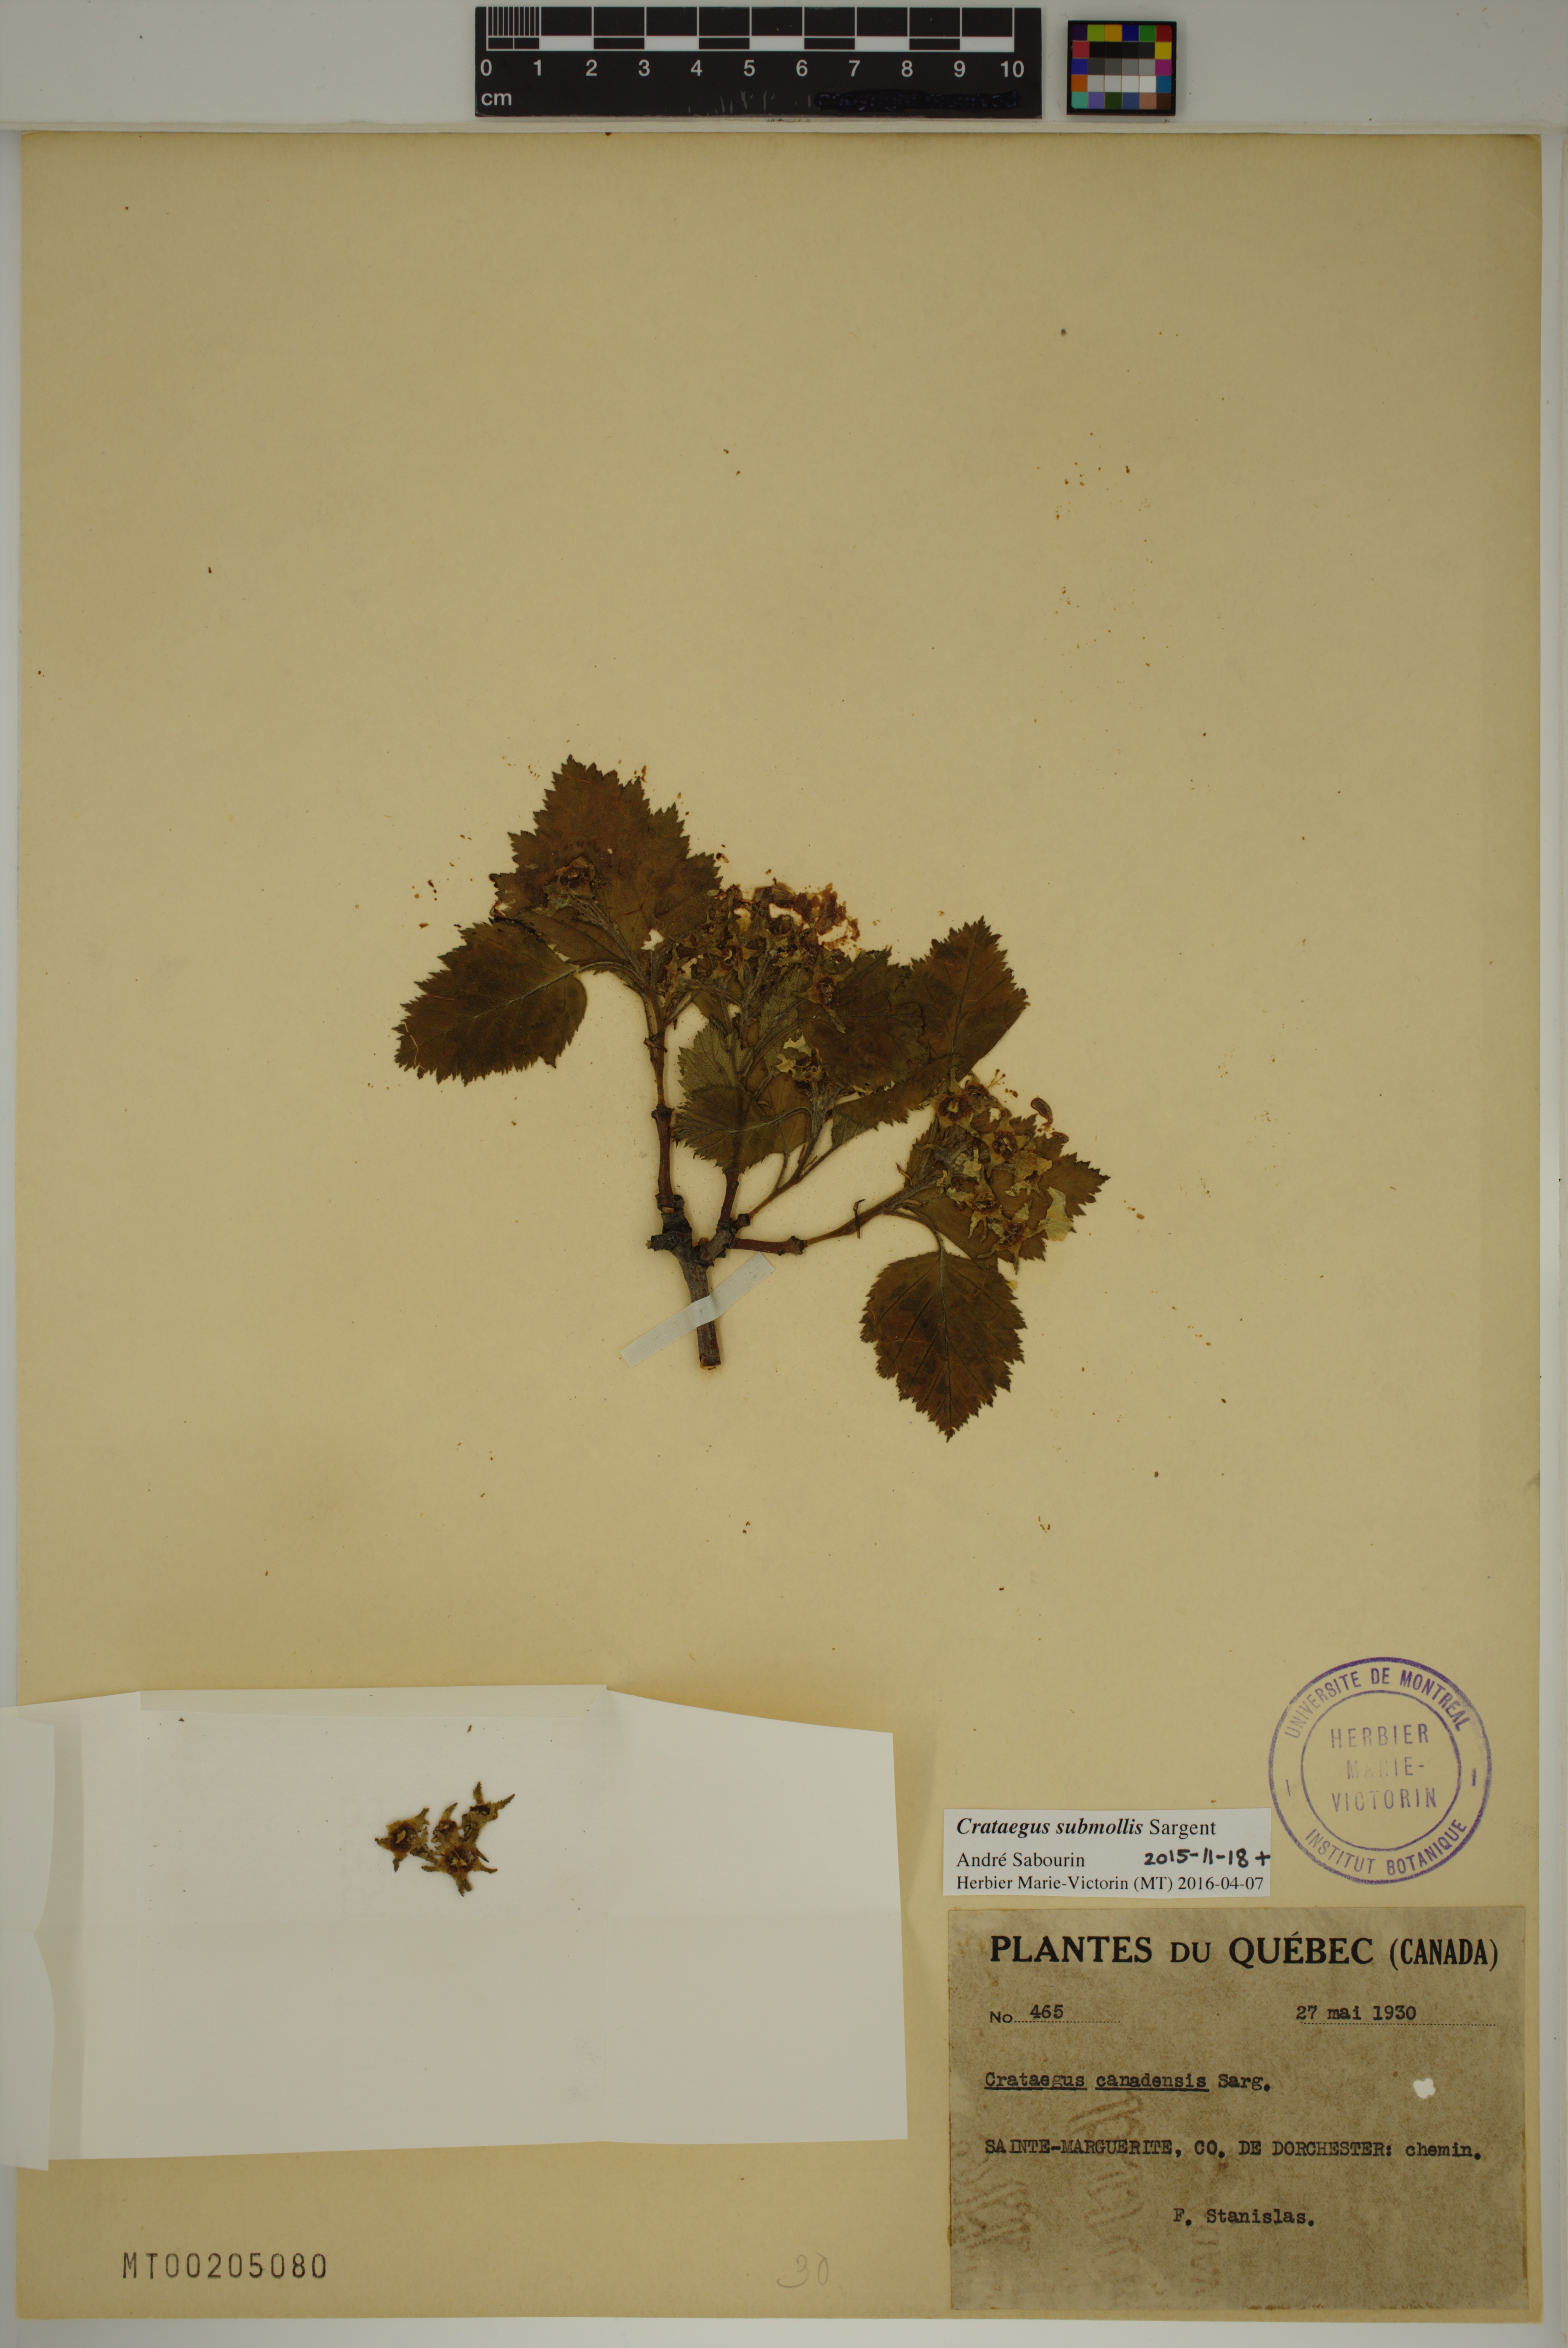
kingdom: Plantae
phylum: Tracheophyta
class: Magnoliopsida
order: Rosales
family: Rosaceae
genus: Crataegus
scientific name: Crataegus submollis
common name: Hairy cockspurthorn
